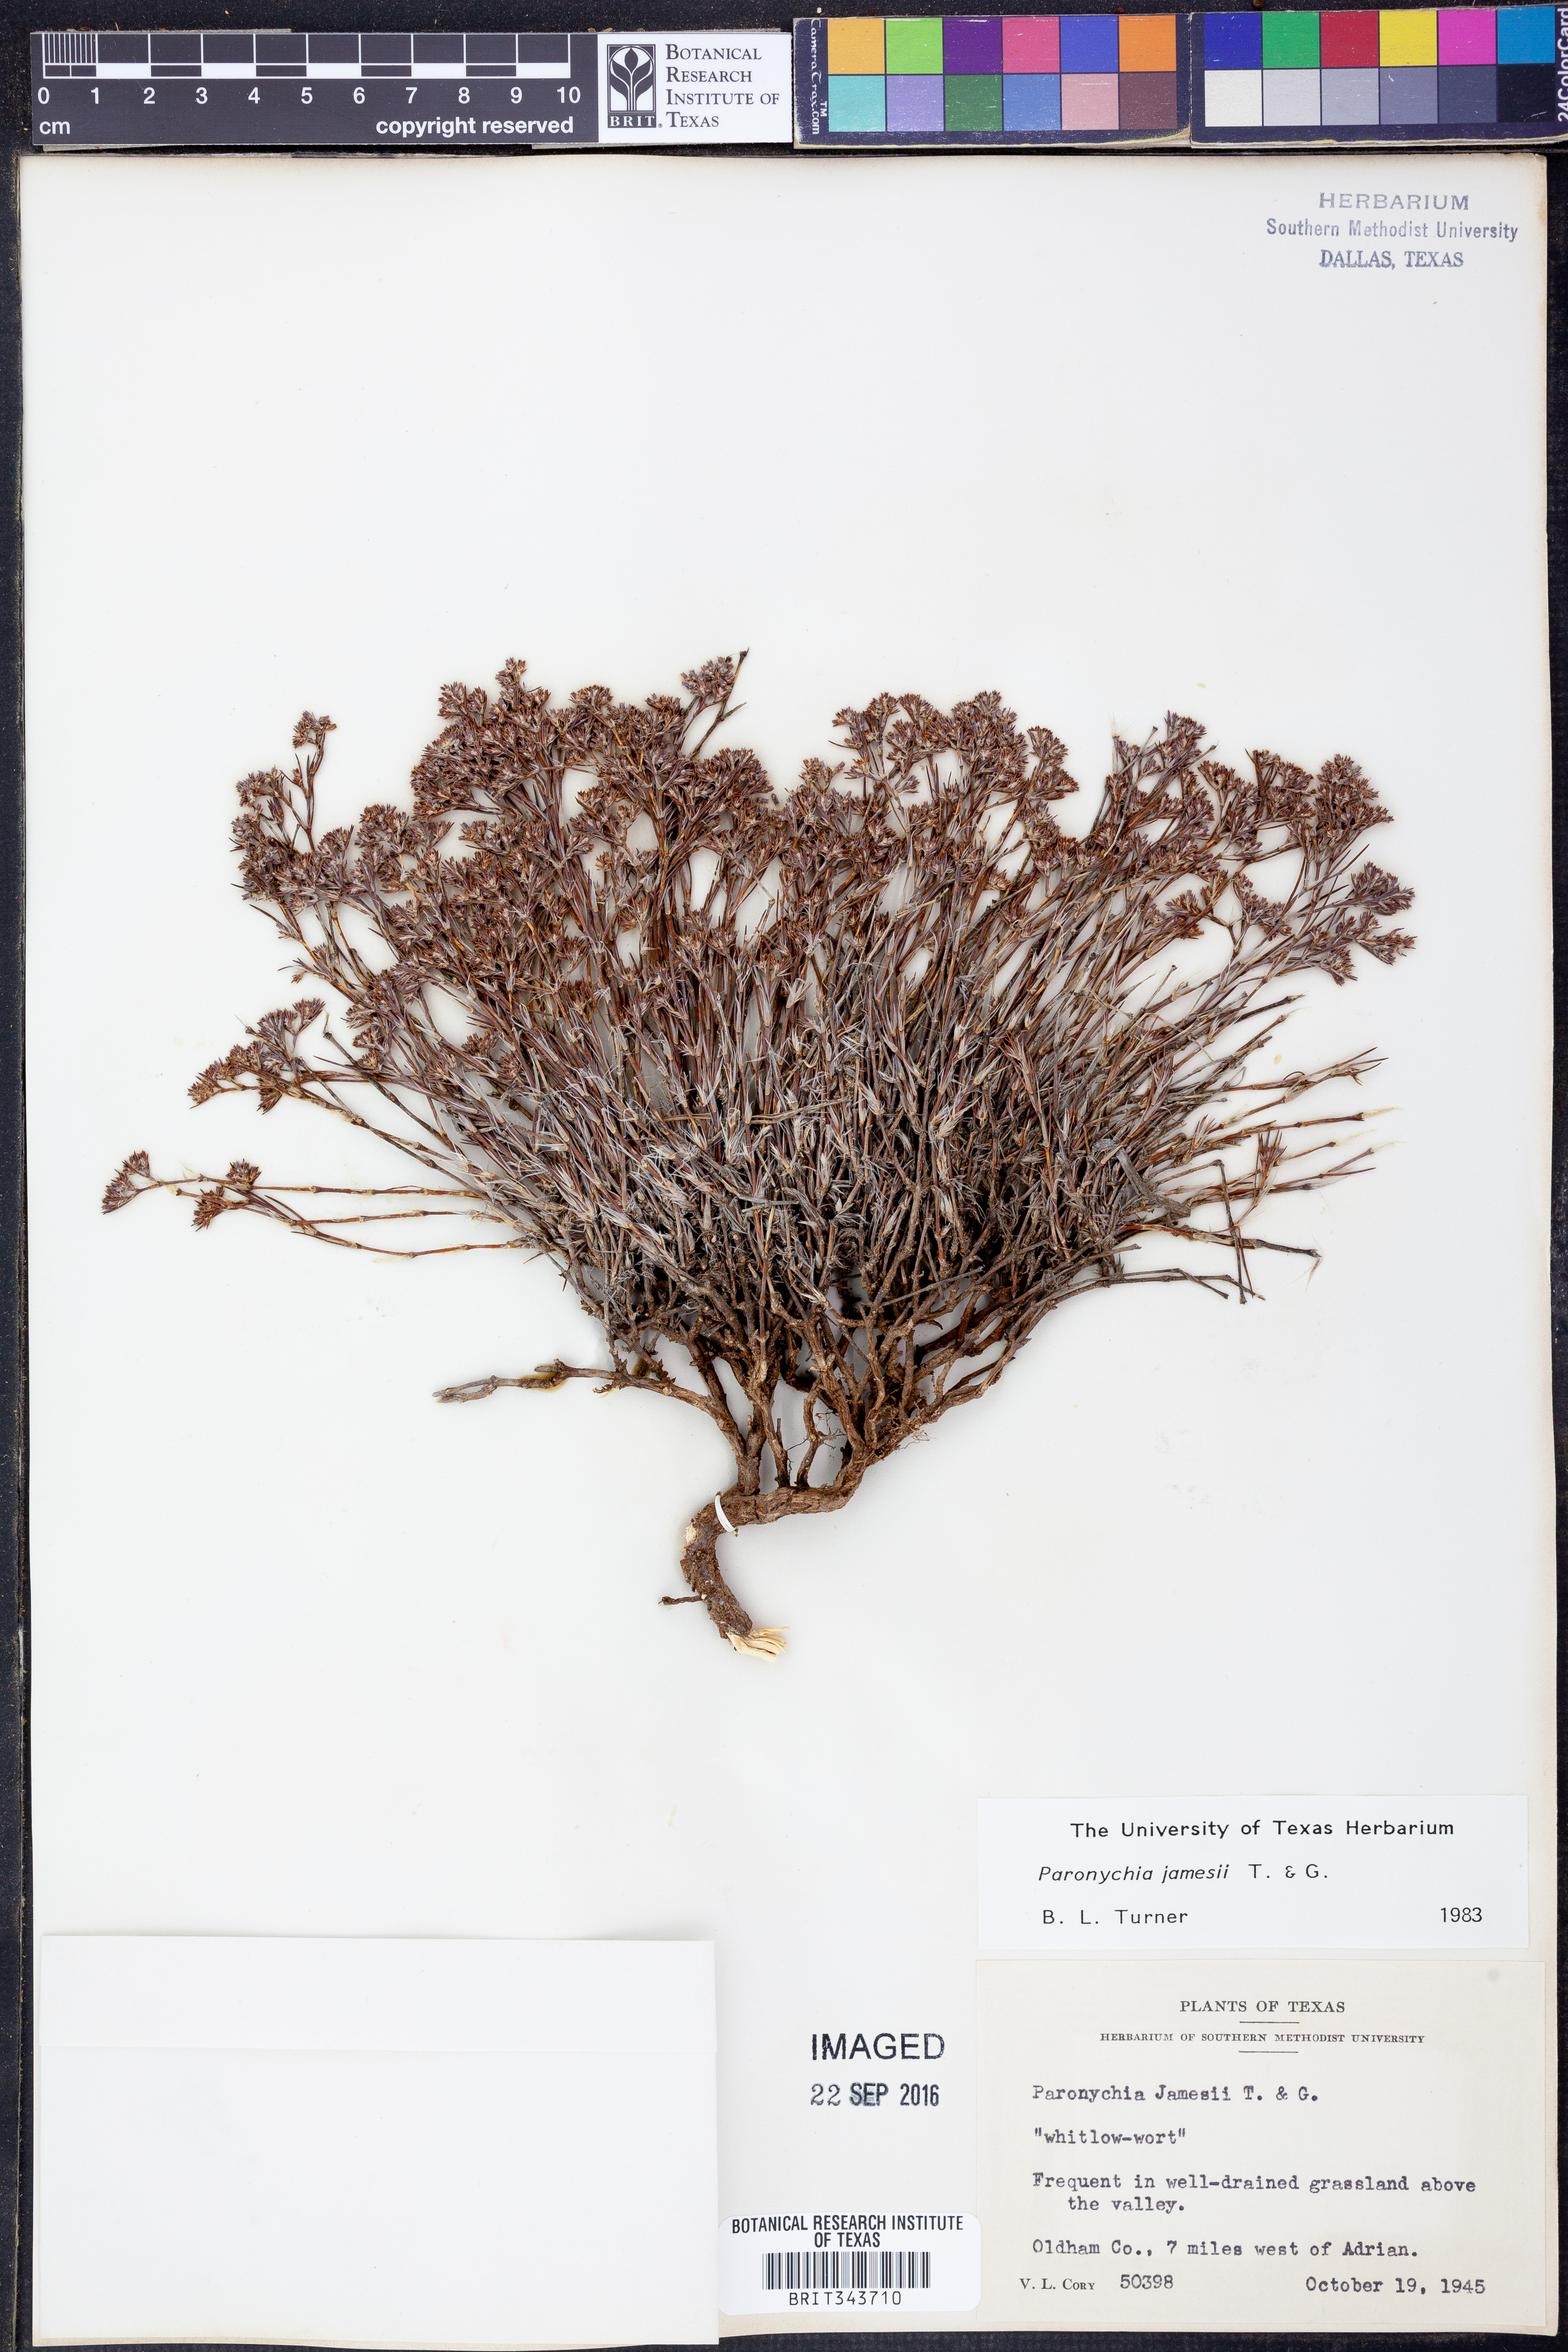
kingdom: Plantae
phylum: Tracheophyta
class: Magnoliopsida
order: Caryophyllales
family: Caryophyllaceae
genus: Paronychia
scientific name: Paronychia jamesii
